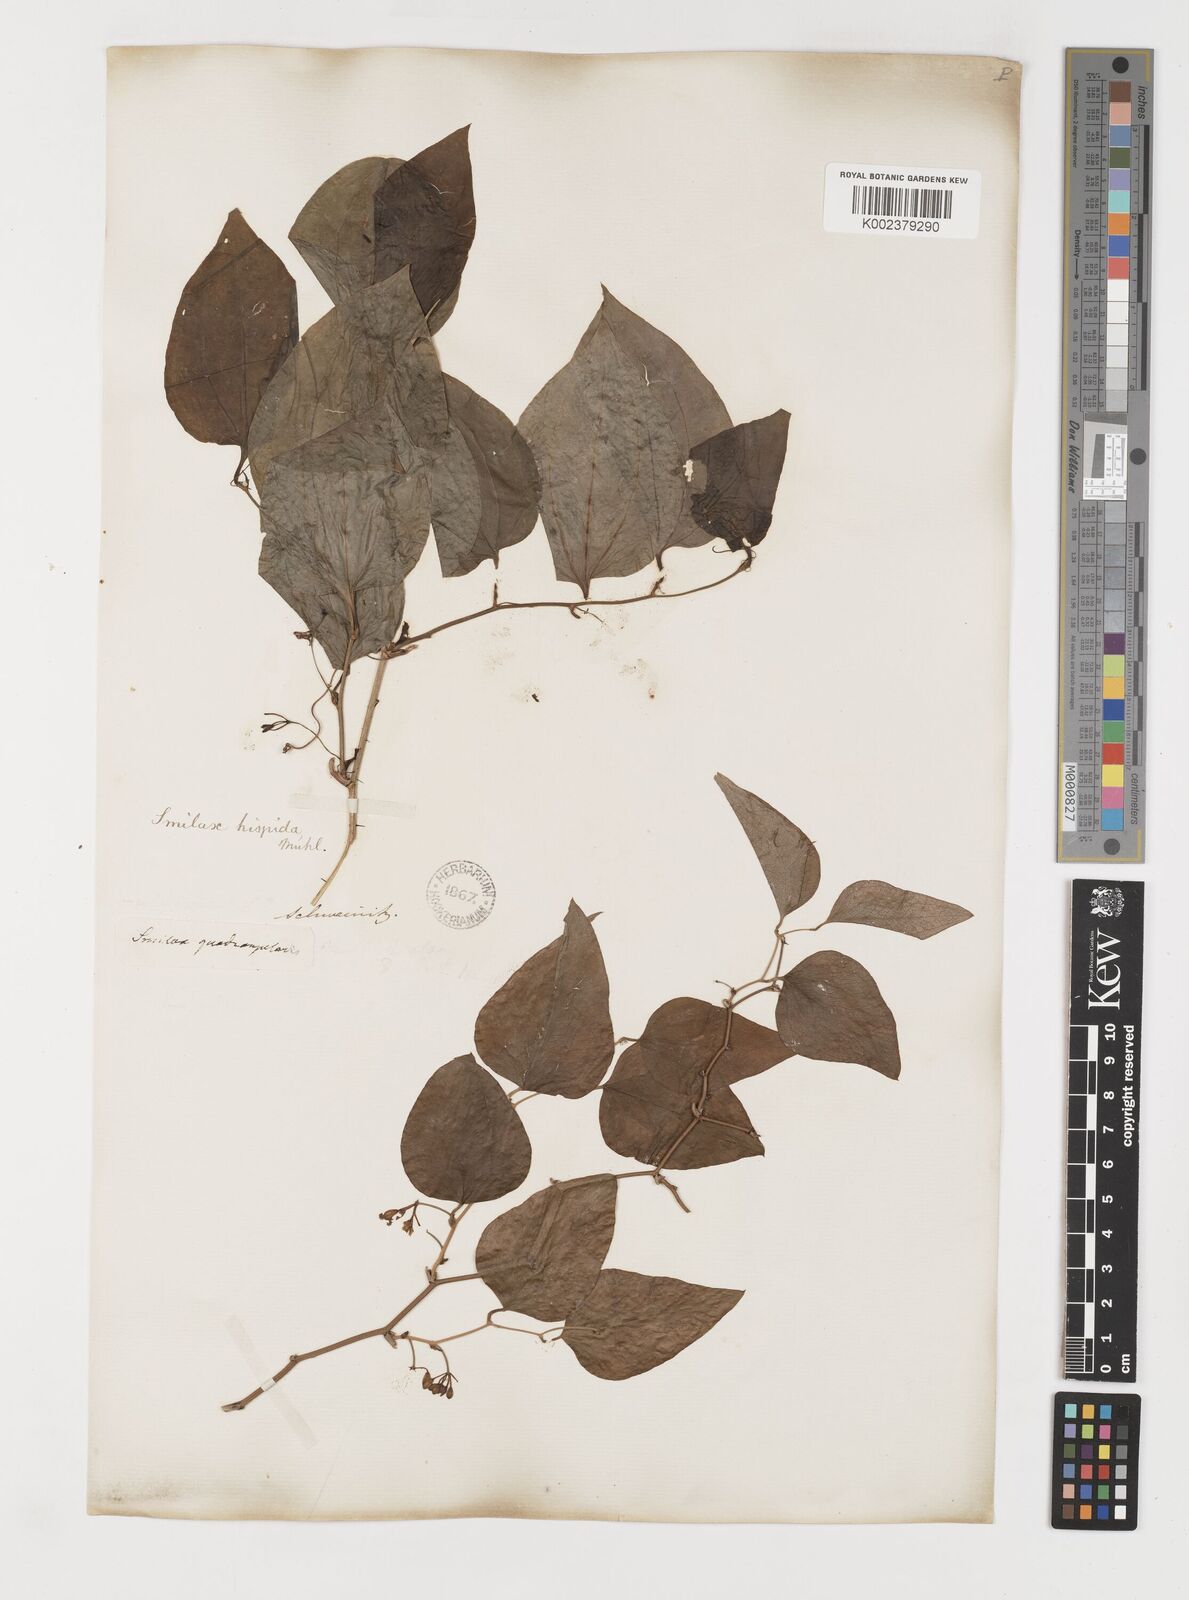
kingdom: Plantae
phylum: Tracheophyta
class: Liliopsida
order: Liliales
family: Smilacaceae
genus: Smilax
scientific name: Smilax tamnoides
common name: Hellfetter
